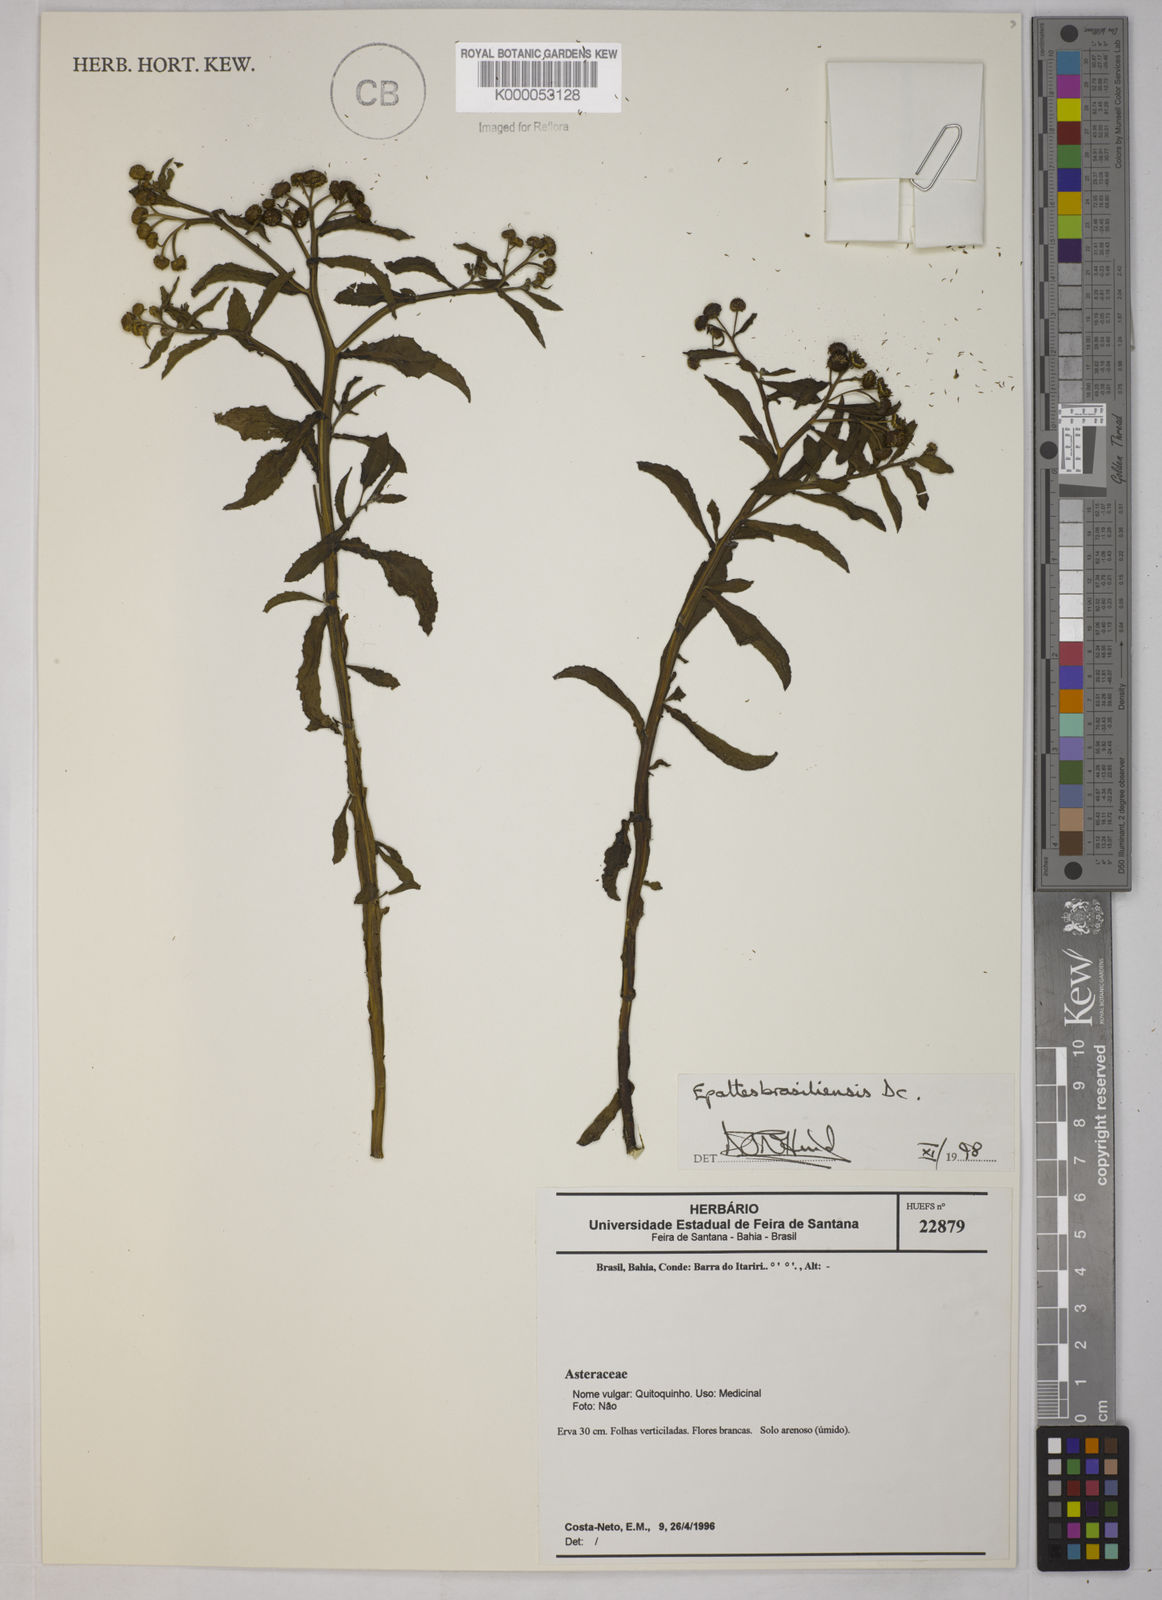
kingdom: Plantae
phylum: Tracheophyta
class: Magnoliopsida
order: Asterales
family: Asteraceae
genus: Epaltes
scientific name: Epaltes brasiliensis
